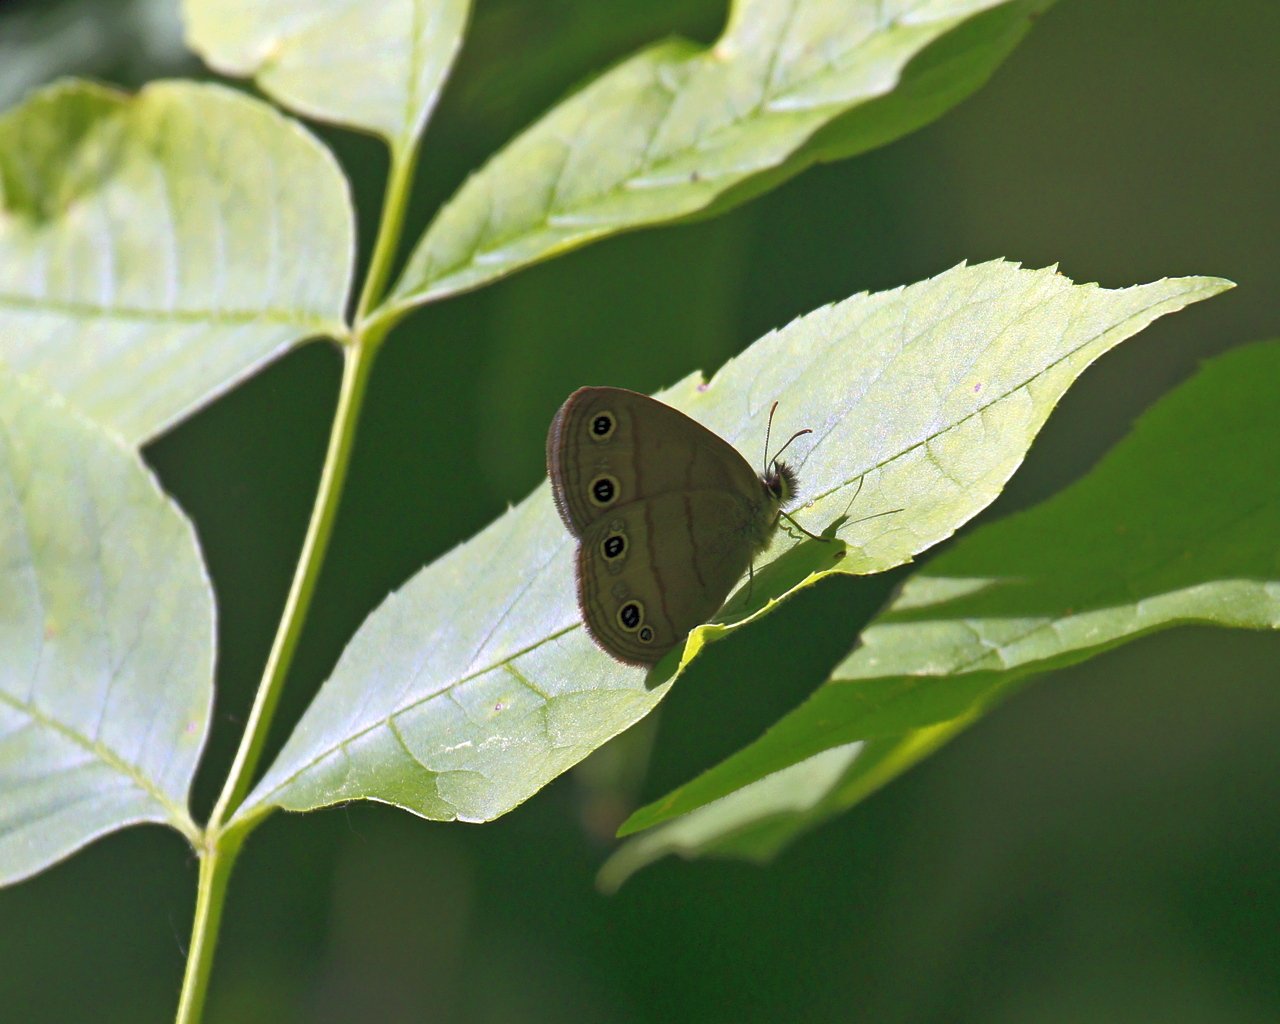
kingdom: Animalia
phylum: Arthropoda
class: Insecta
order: Lepidoptera
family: Nymphalidae
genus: Euptychia
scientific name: Euptychia cymela
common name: Little Wood Satyr
